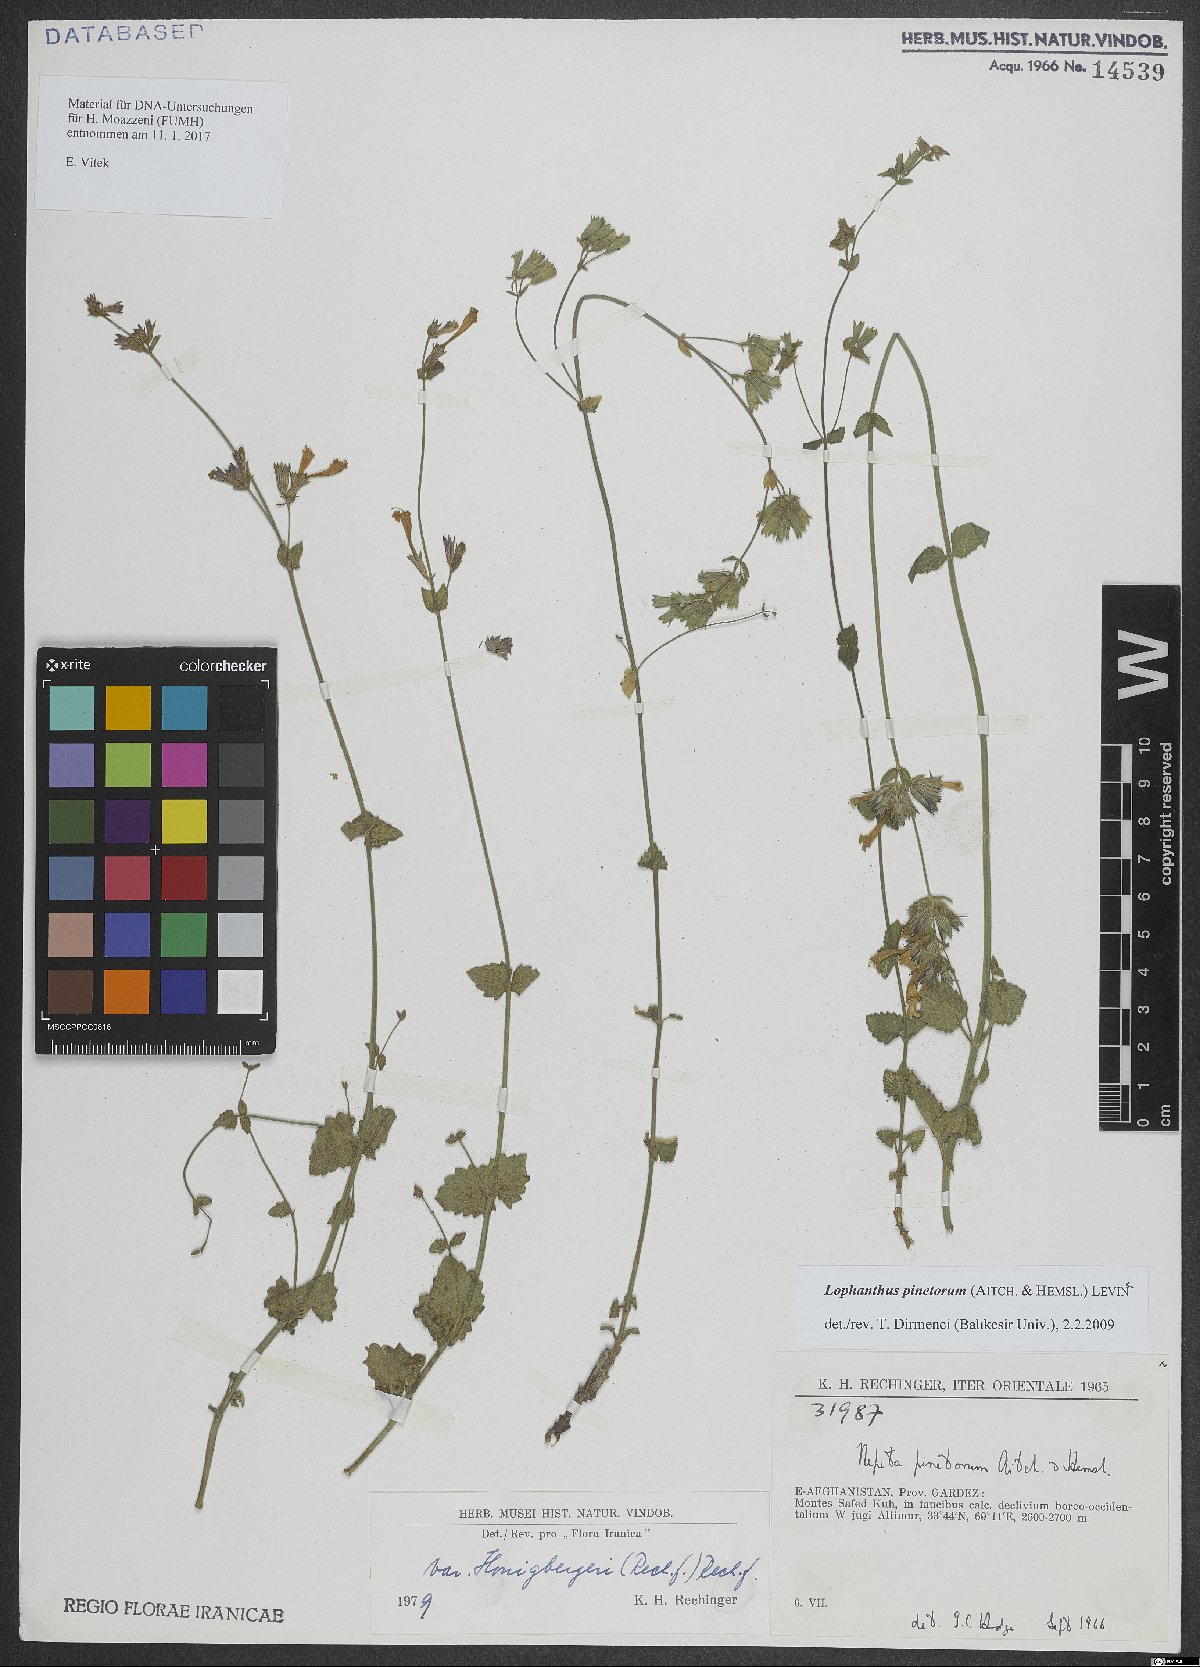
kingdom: Plantae
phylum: Tracheophyta
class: Magnoliopsida
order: Lamiales
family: Lamiaceae
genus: Nepeta
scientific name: Nepeta pinetorum
